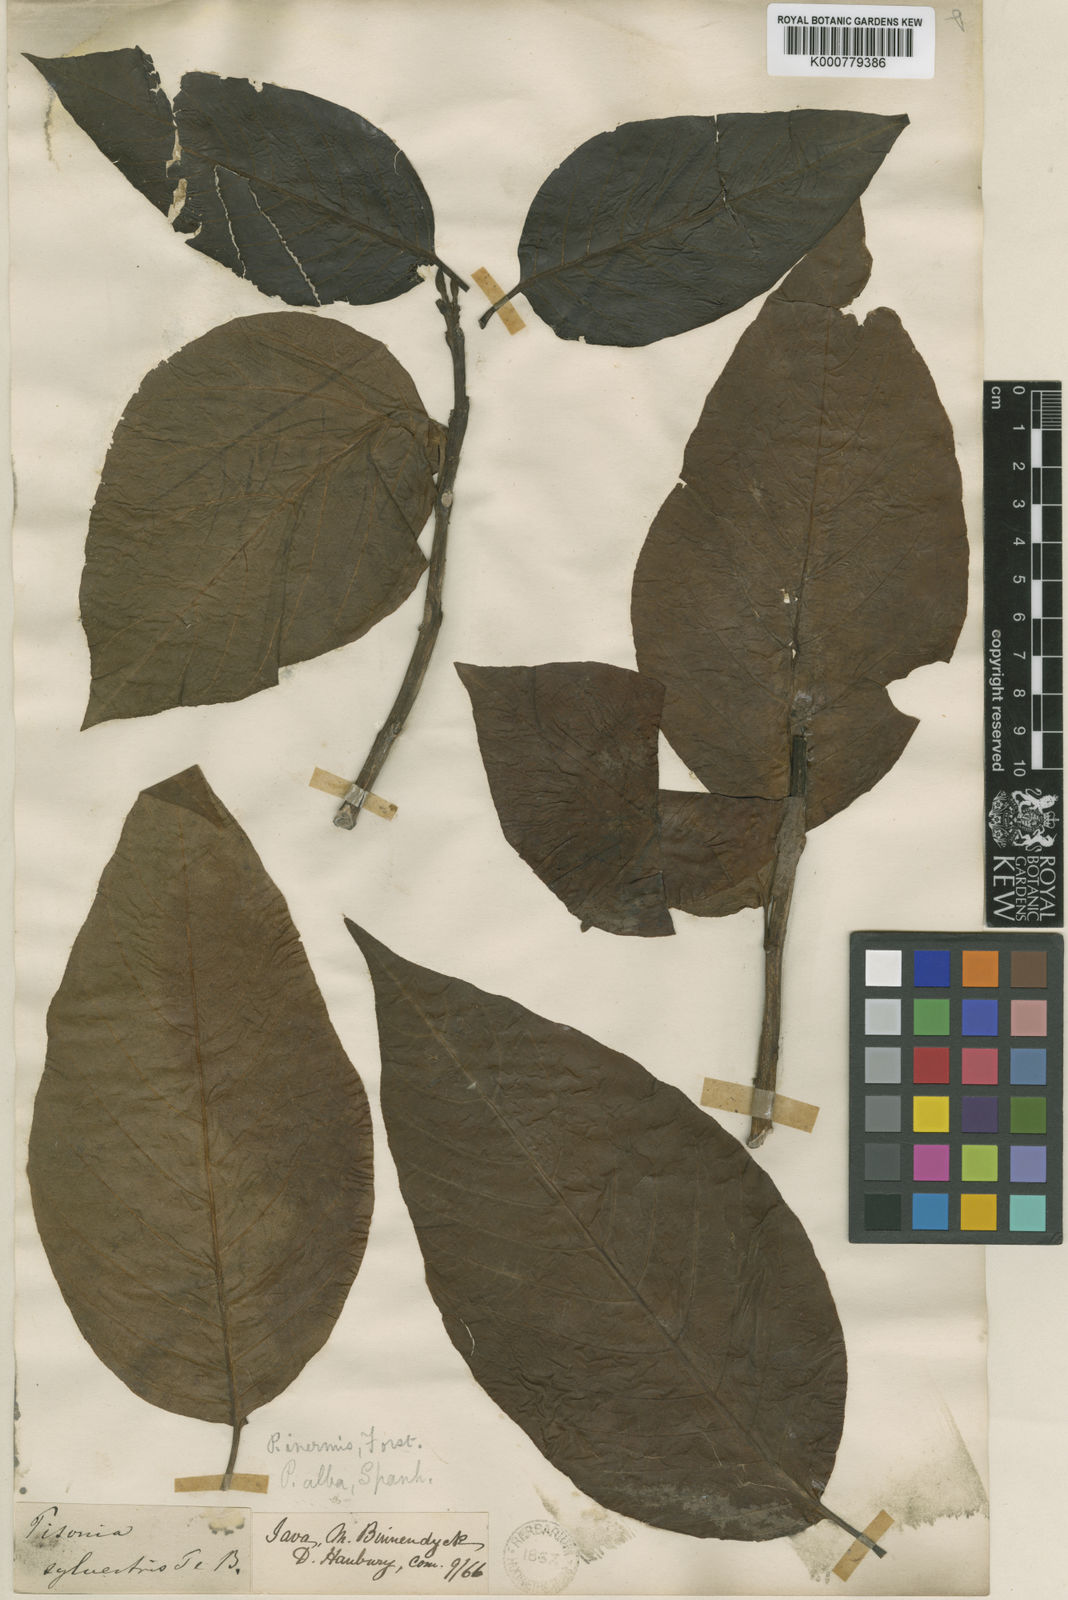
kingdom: Plantae
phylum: Tracheophyta
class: Magnoliopsida
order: Caryophyllales
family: Nyctaginaceae
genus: Ceodes
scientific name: Ceodes grandis
